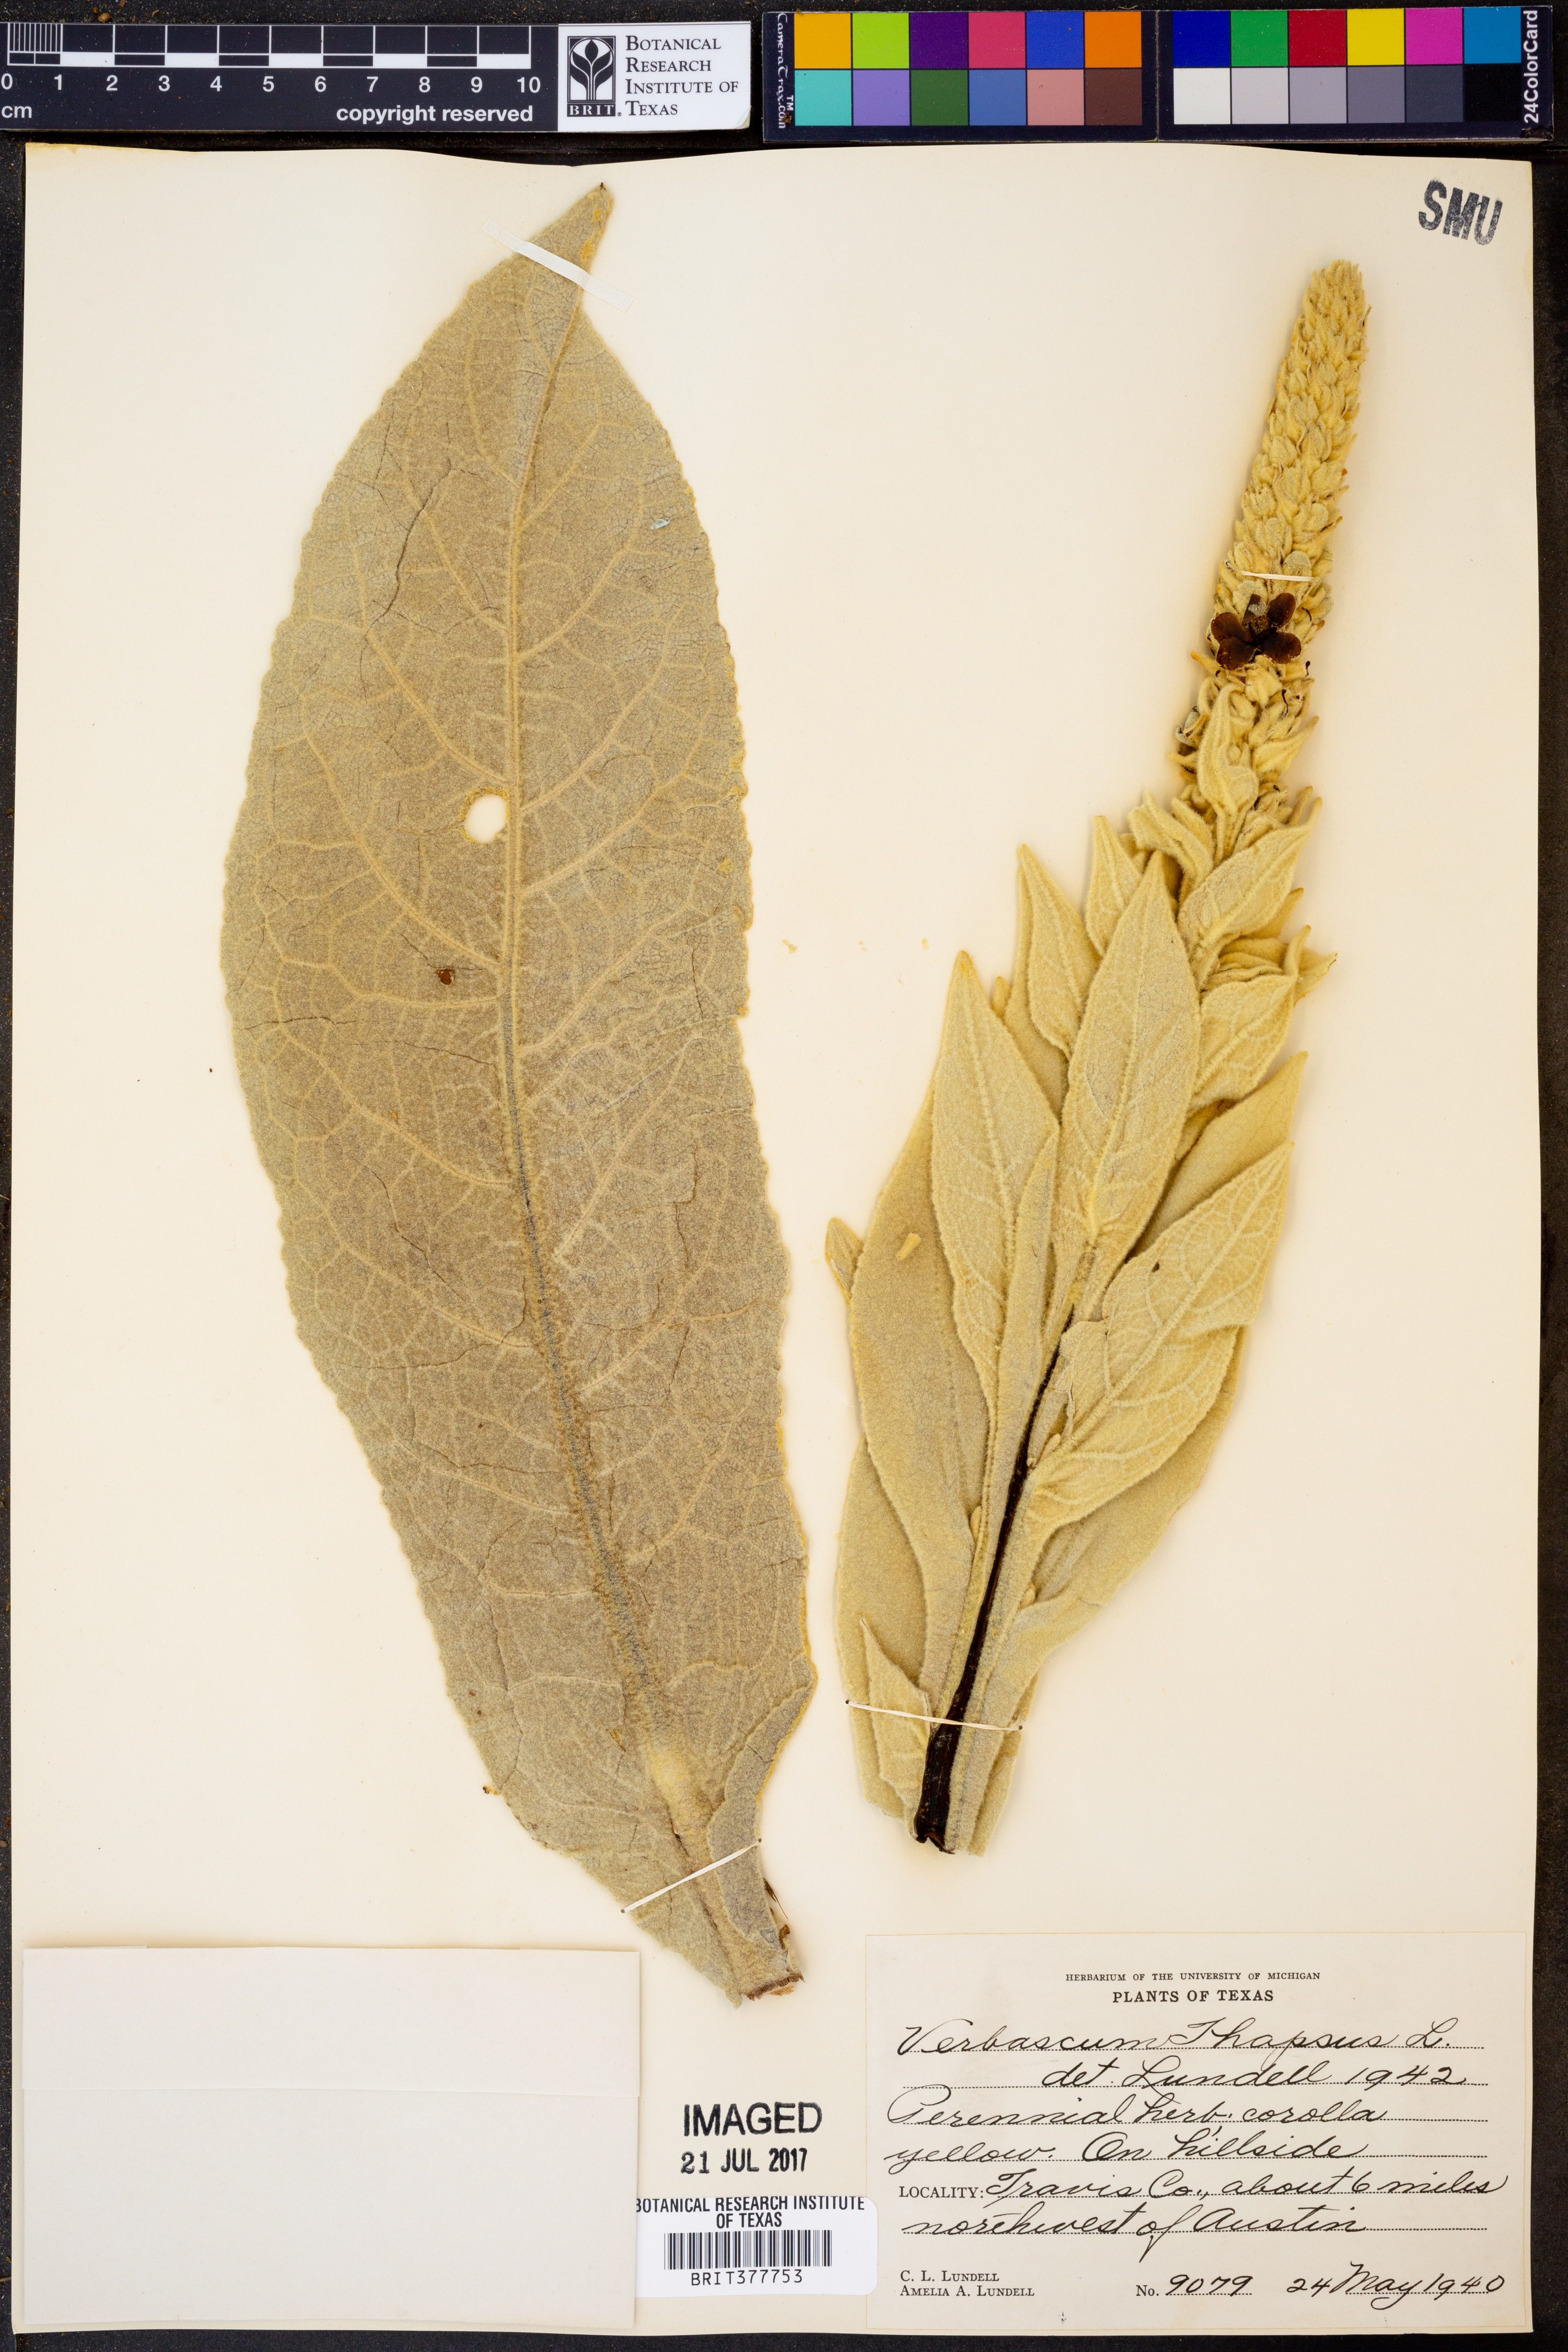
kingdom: Plantae
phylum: Tracheophyta
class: Magnoliopsida
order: Lamiales
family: Scrophulariaceae
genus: Verbascum
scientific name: Verbascum thapsus
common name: Common mullein
